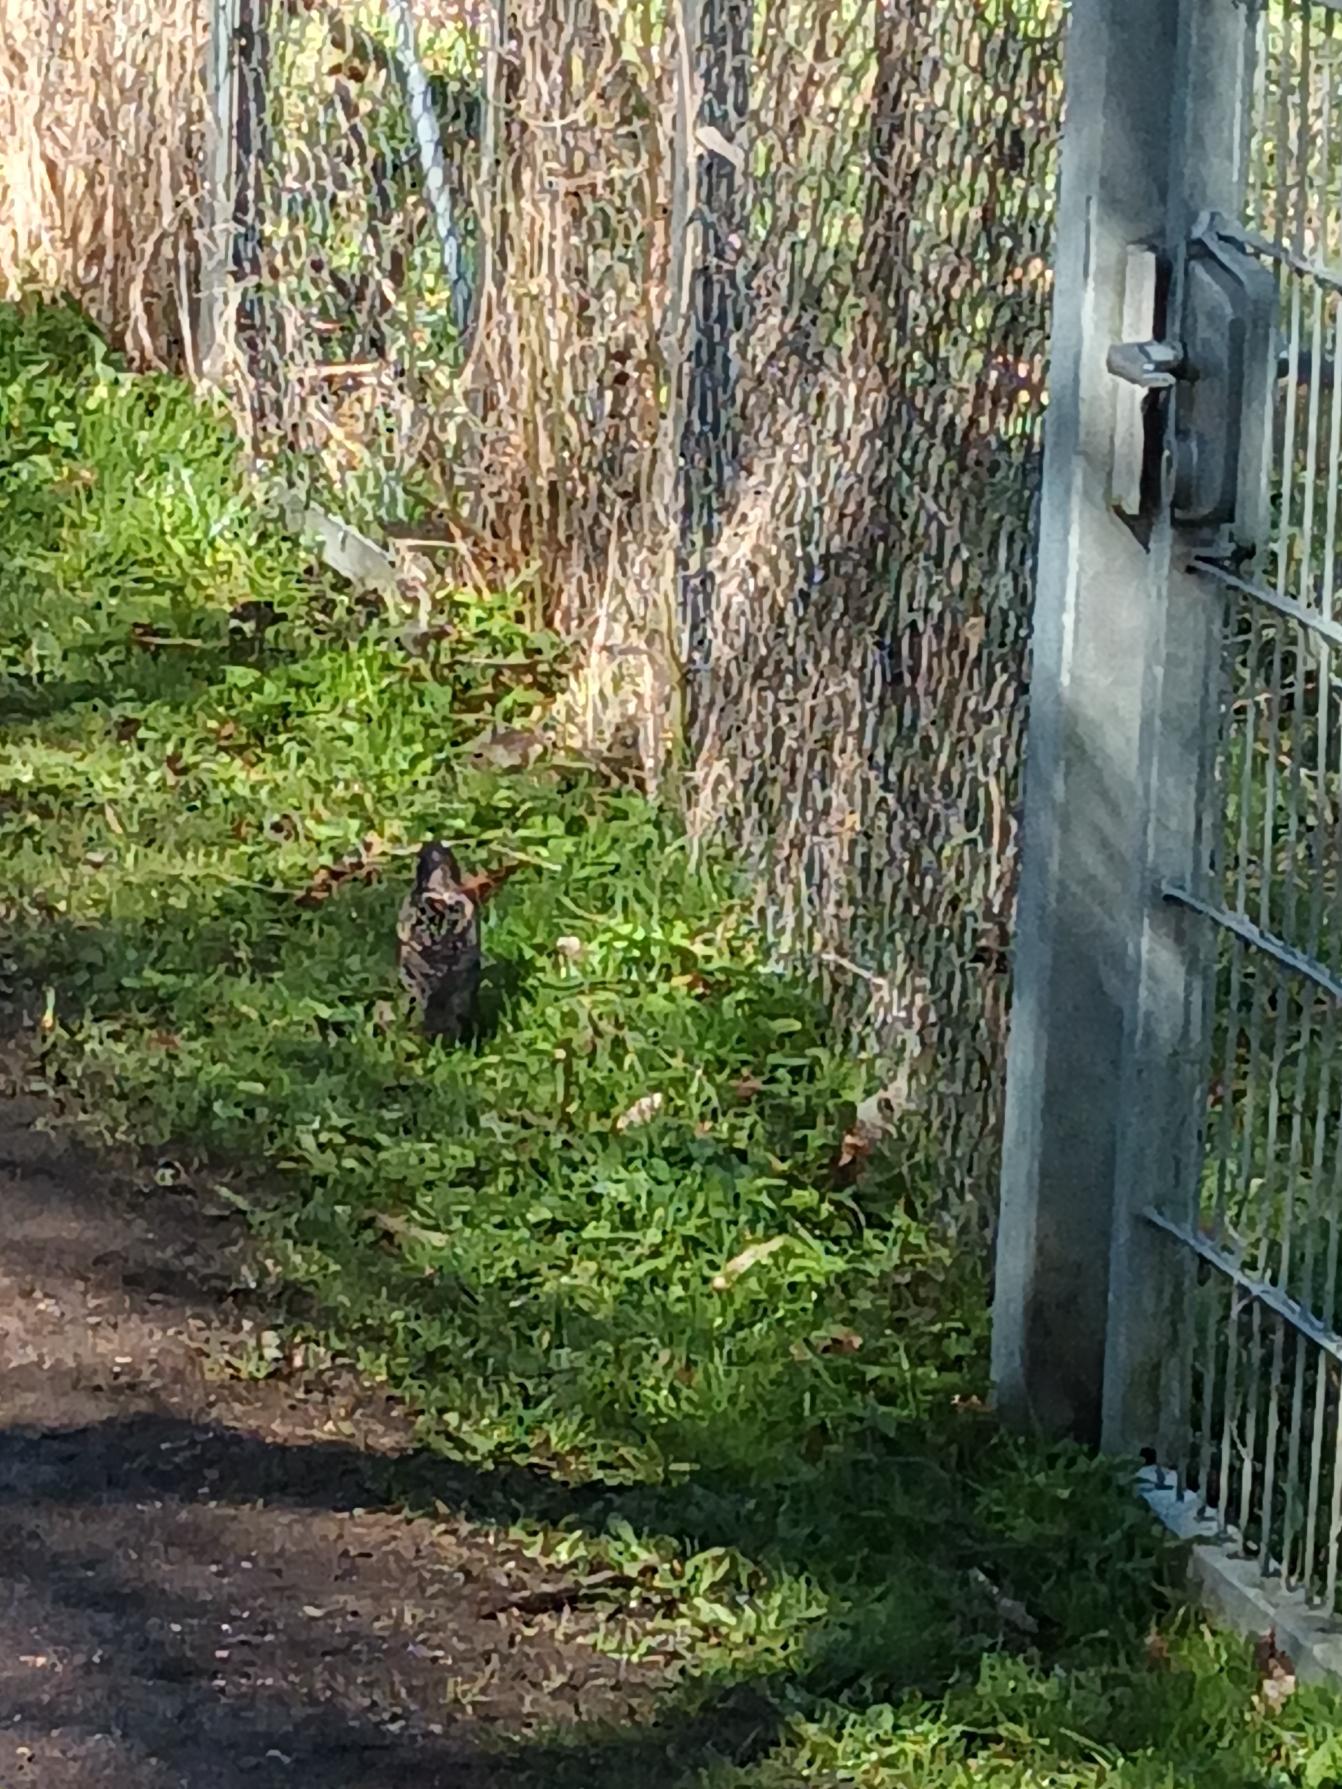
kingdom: Animalia
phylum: Chordata
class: Aves
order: Passeriformes
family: Sturnidae
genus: Sturnus
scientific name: Sturnus vulgaris
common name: Stær
